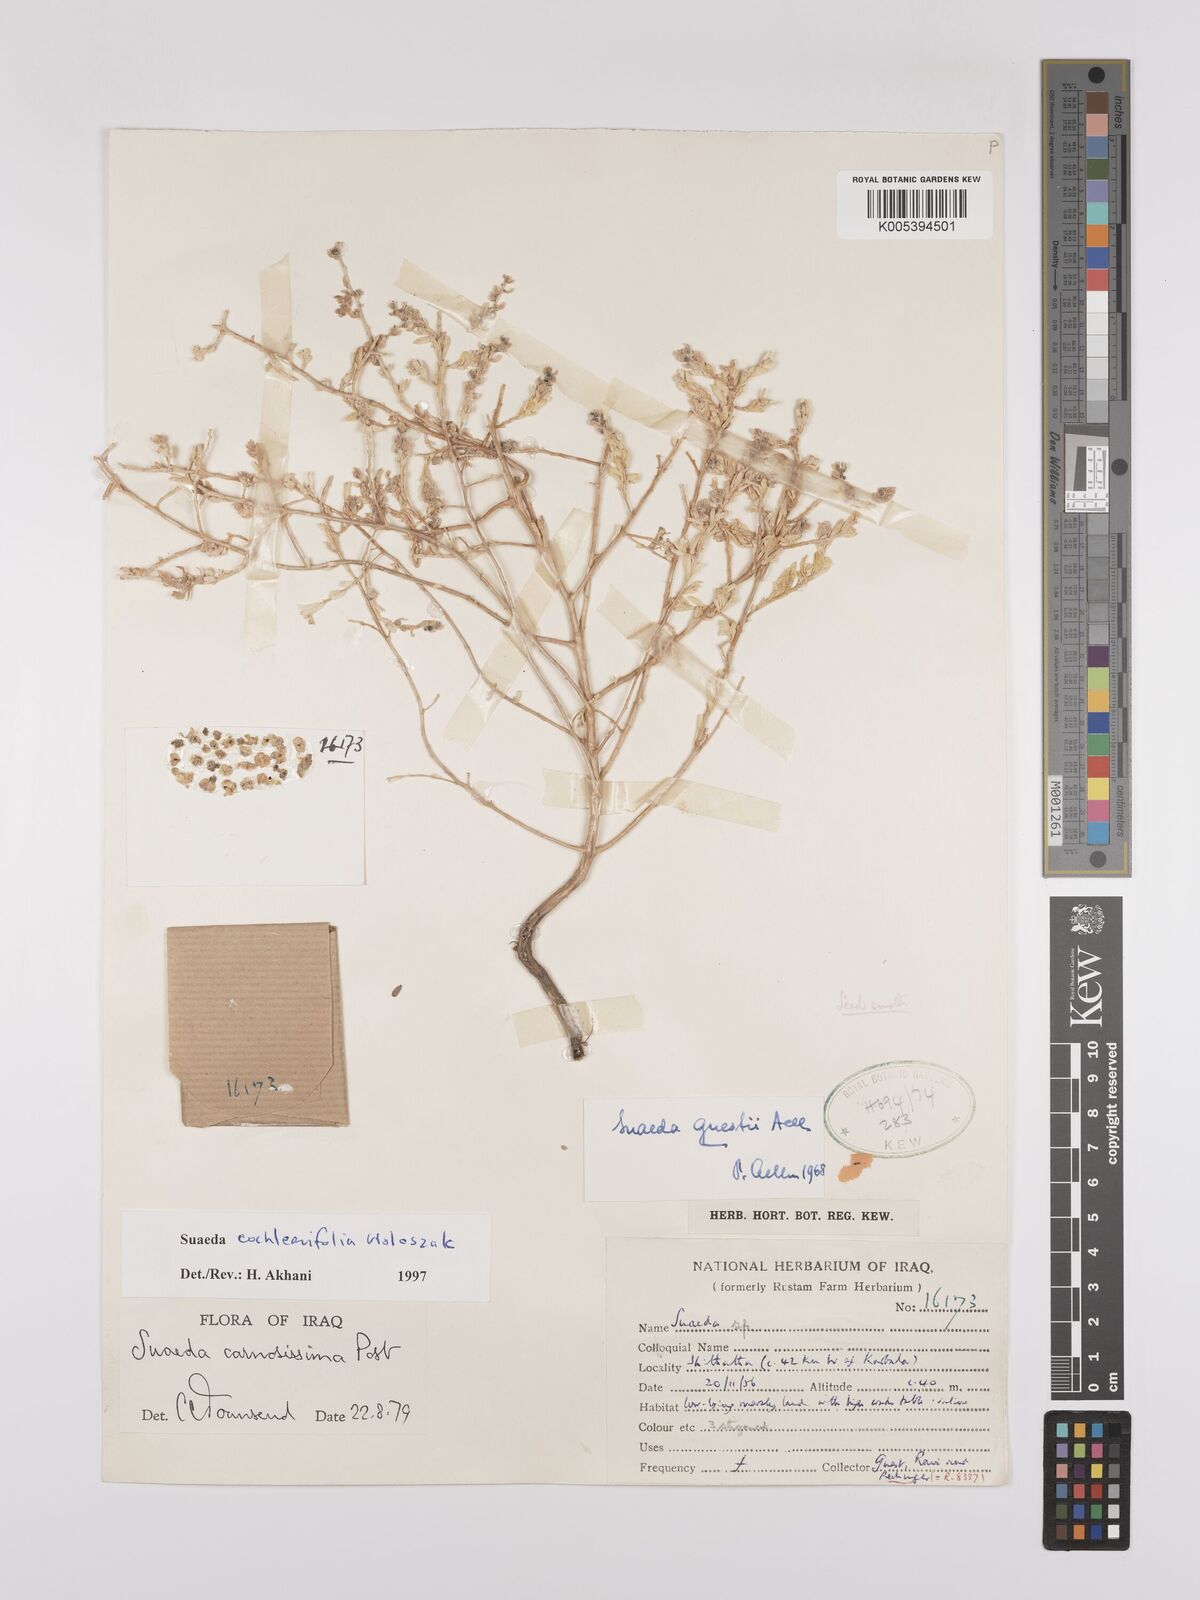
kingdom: Plantae
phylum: Tracheophyta
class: Magnoliopsida
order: Caryophyllales
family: Amaranthaceae
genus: Suaeda
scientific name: Suaeda carnosissima
